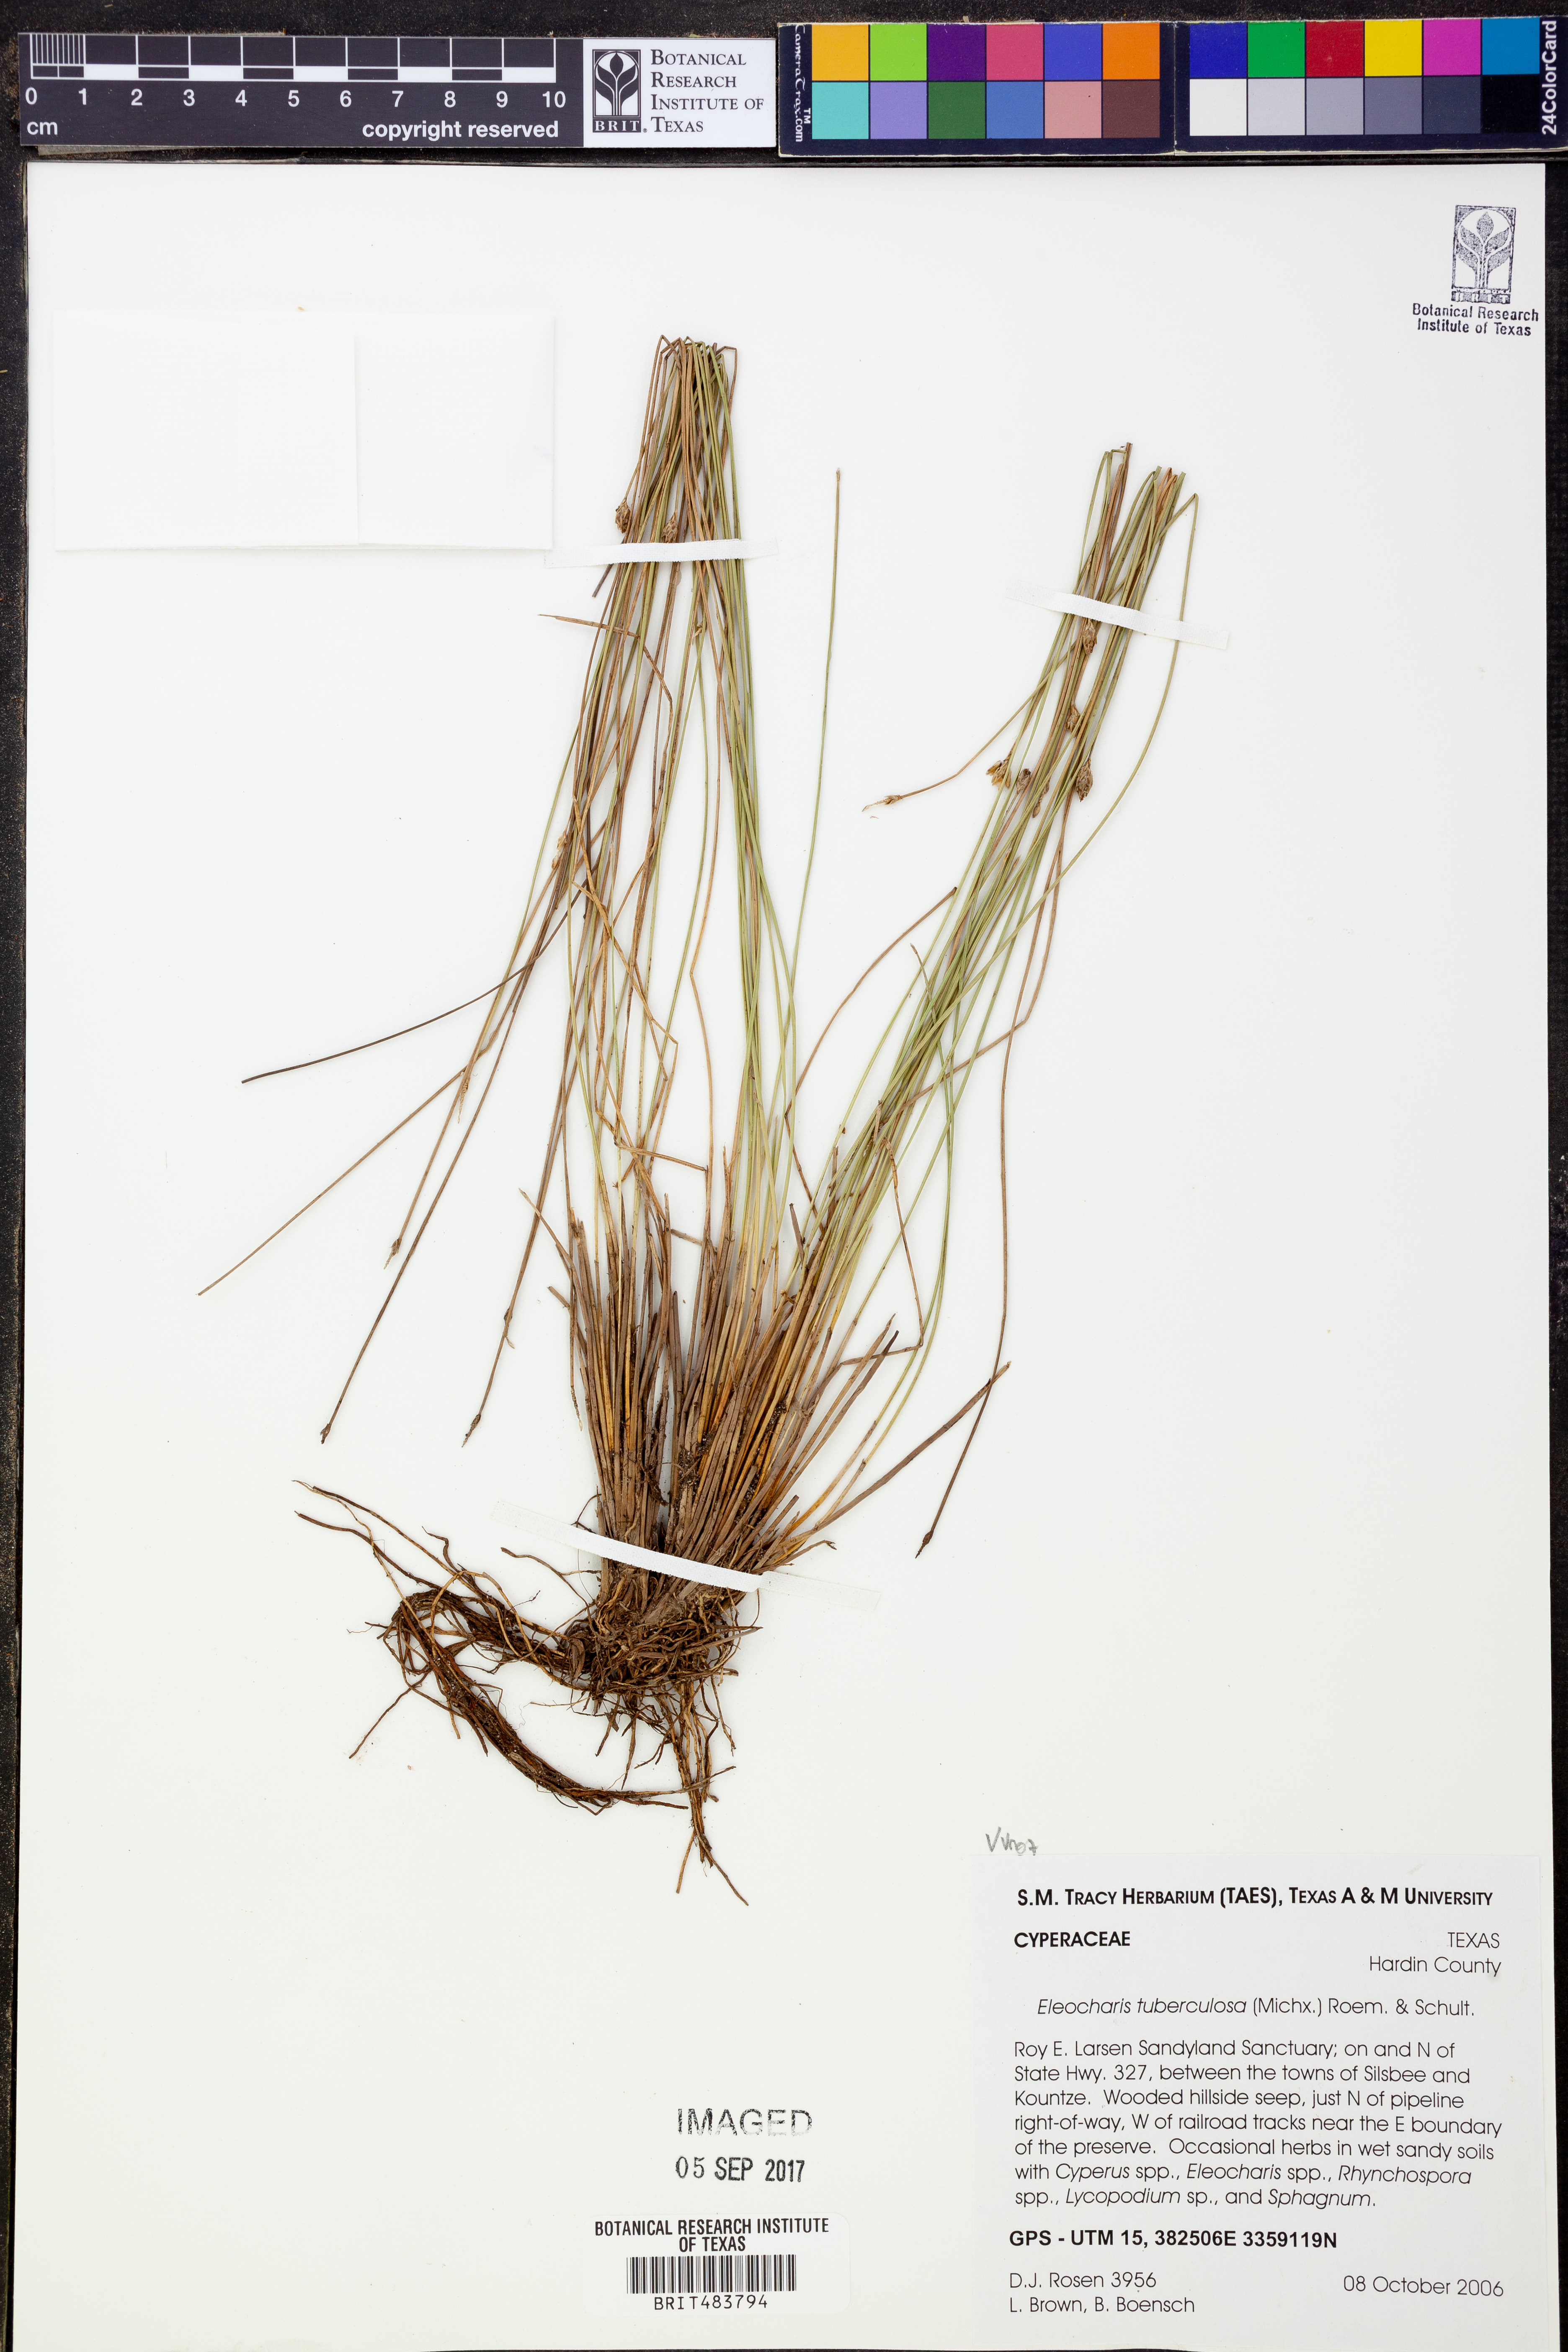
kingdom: Plantae
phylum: Tracheophyta
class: Liliopsida
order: Poales
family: Cyperaceae
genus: Eleocharis
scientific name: Eleocharis tuberculosa
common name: Cone-cup spikerush
